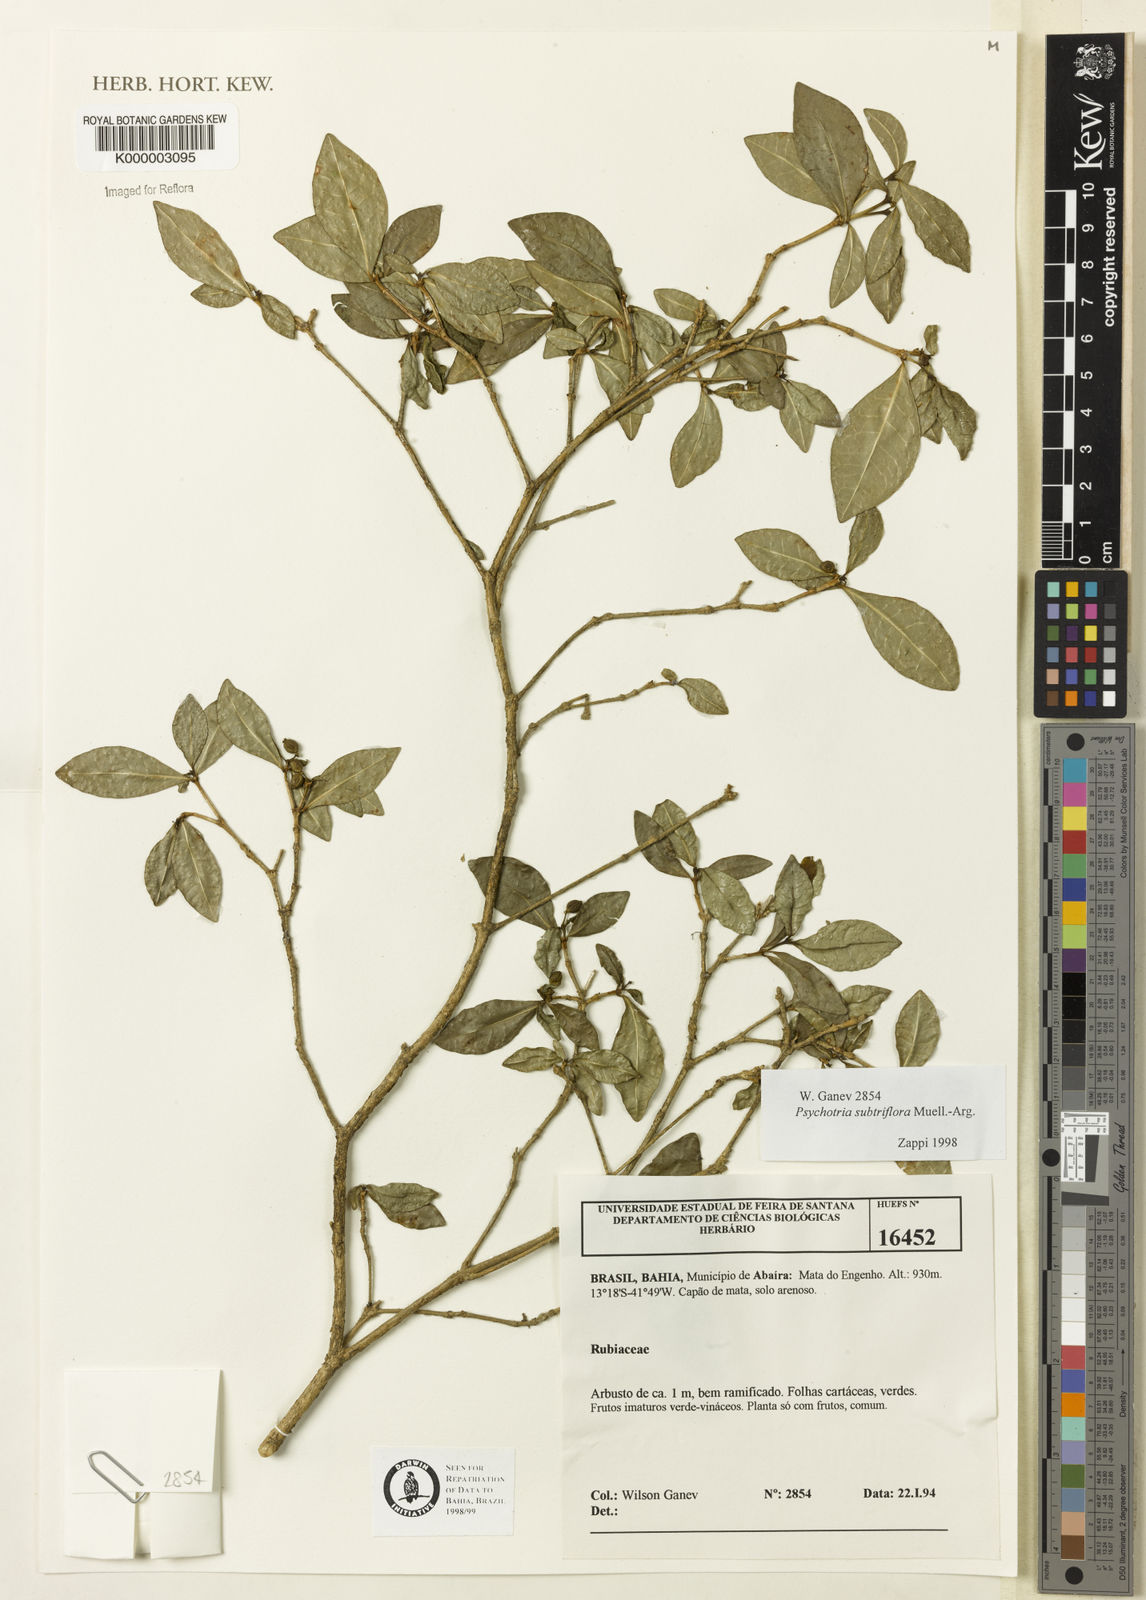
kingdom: Plantae
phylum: Tracheophyta
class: Magnoliopsida
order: Gentianales
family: Rubiaceae
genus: Psychotria
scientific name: Psychotria subtriflora
